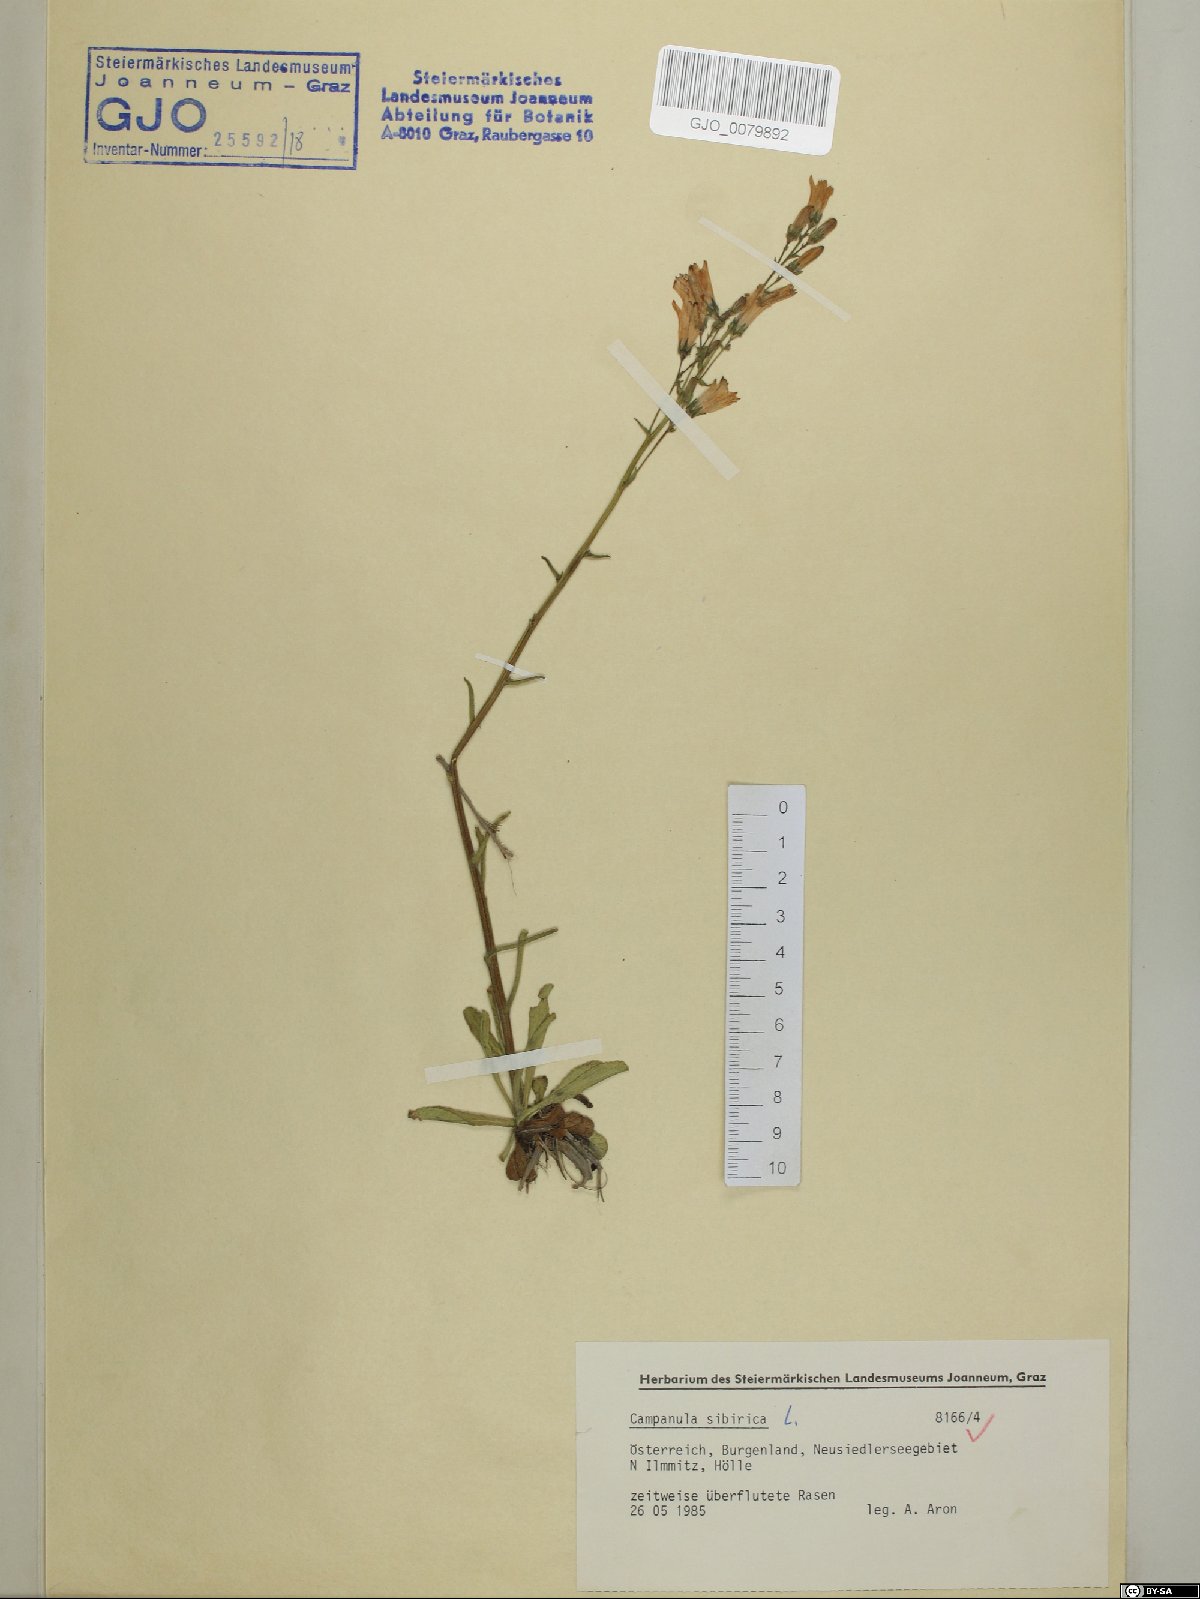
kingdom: Plantae
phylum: Tracheophyta
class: Magnoliopsida
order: Asterales
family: Campanulaceae
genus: Campanula
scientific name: Campanula sibirica
